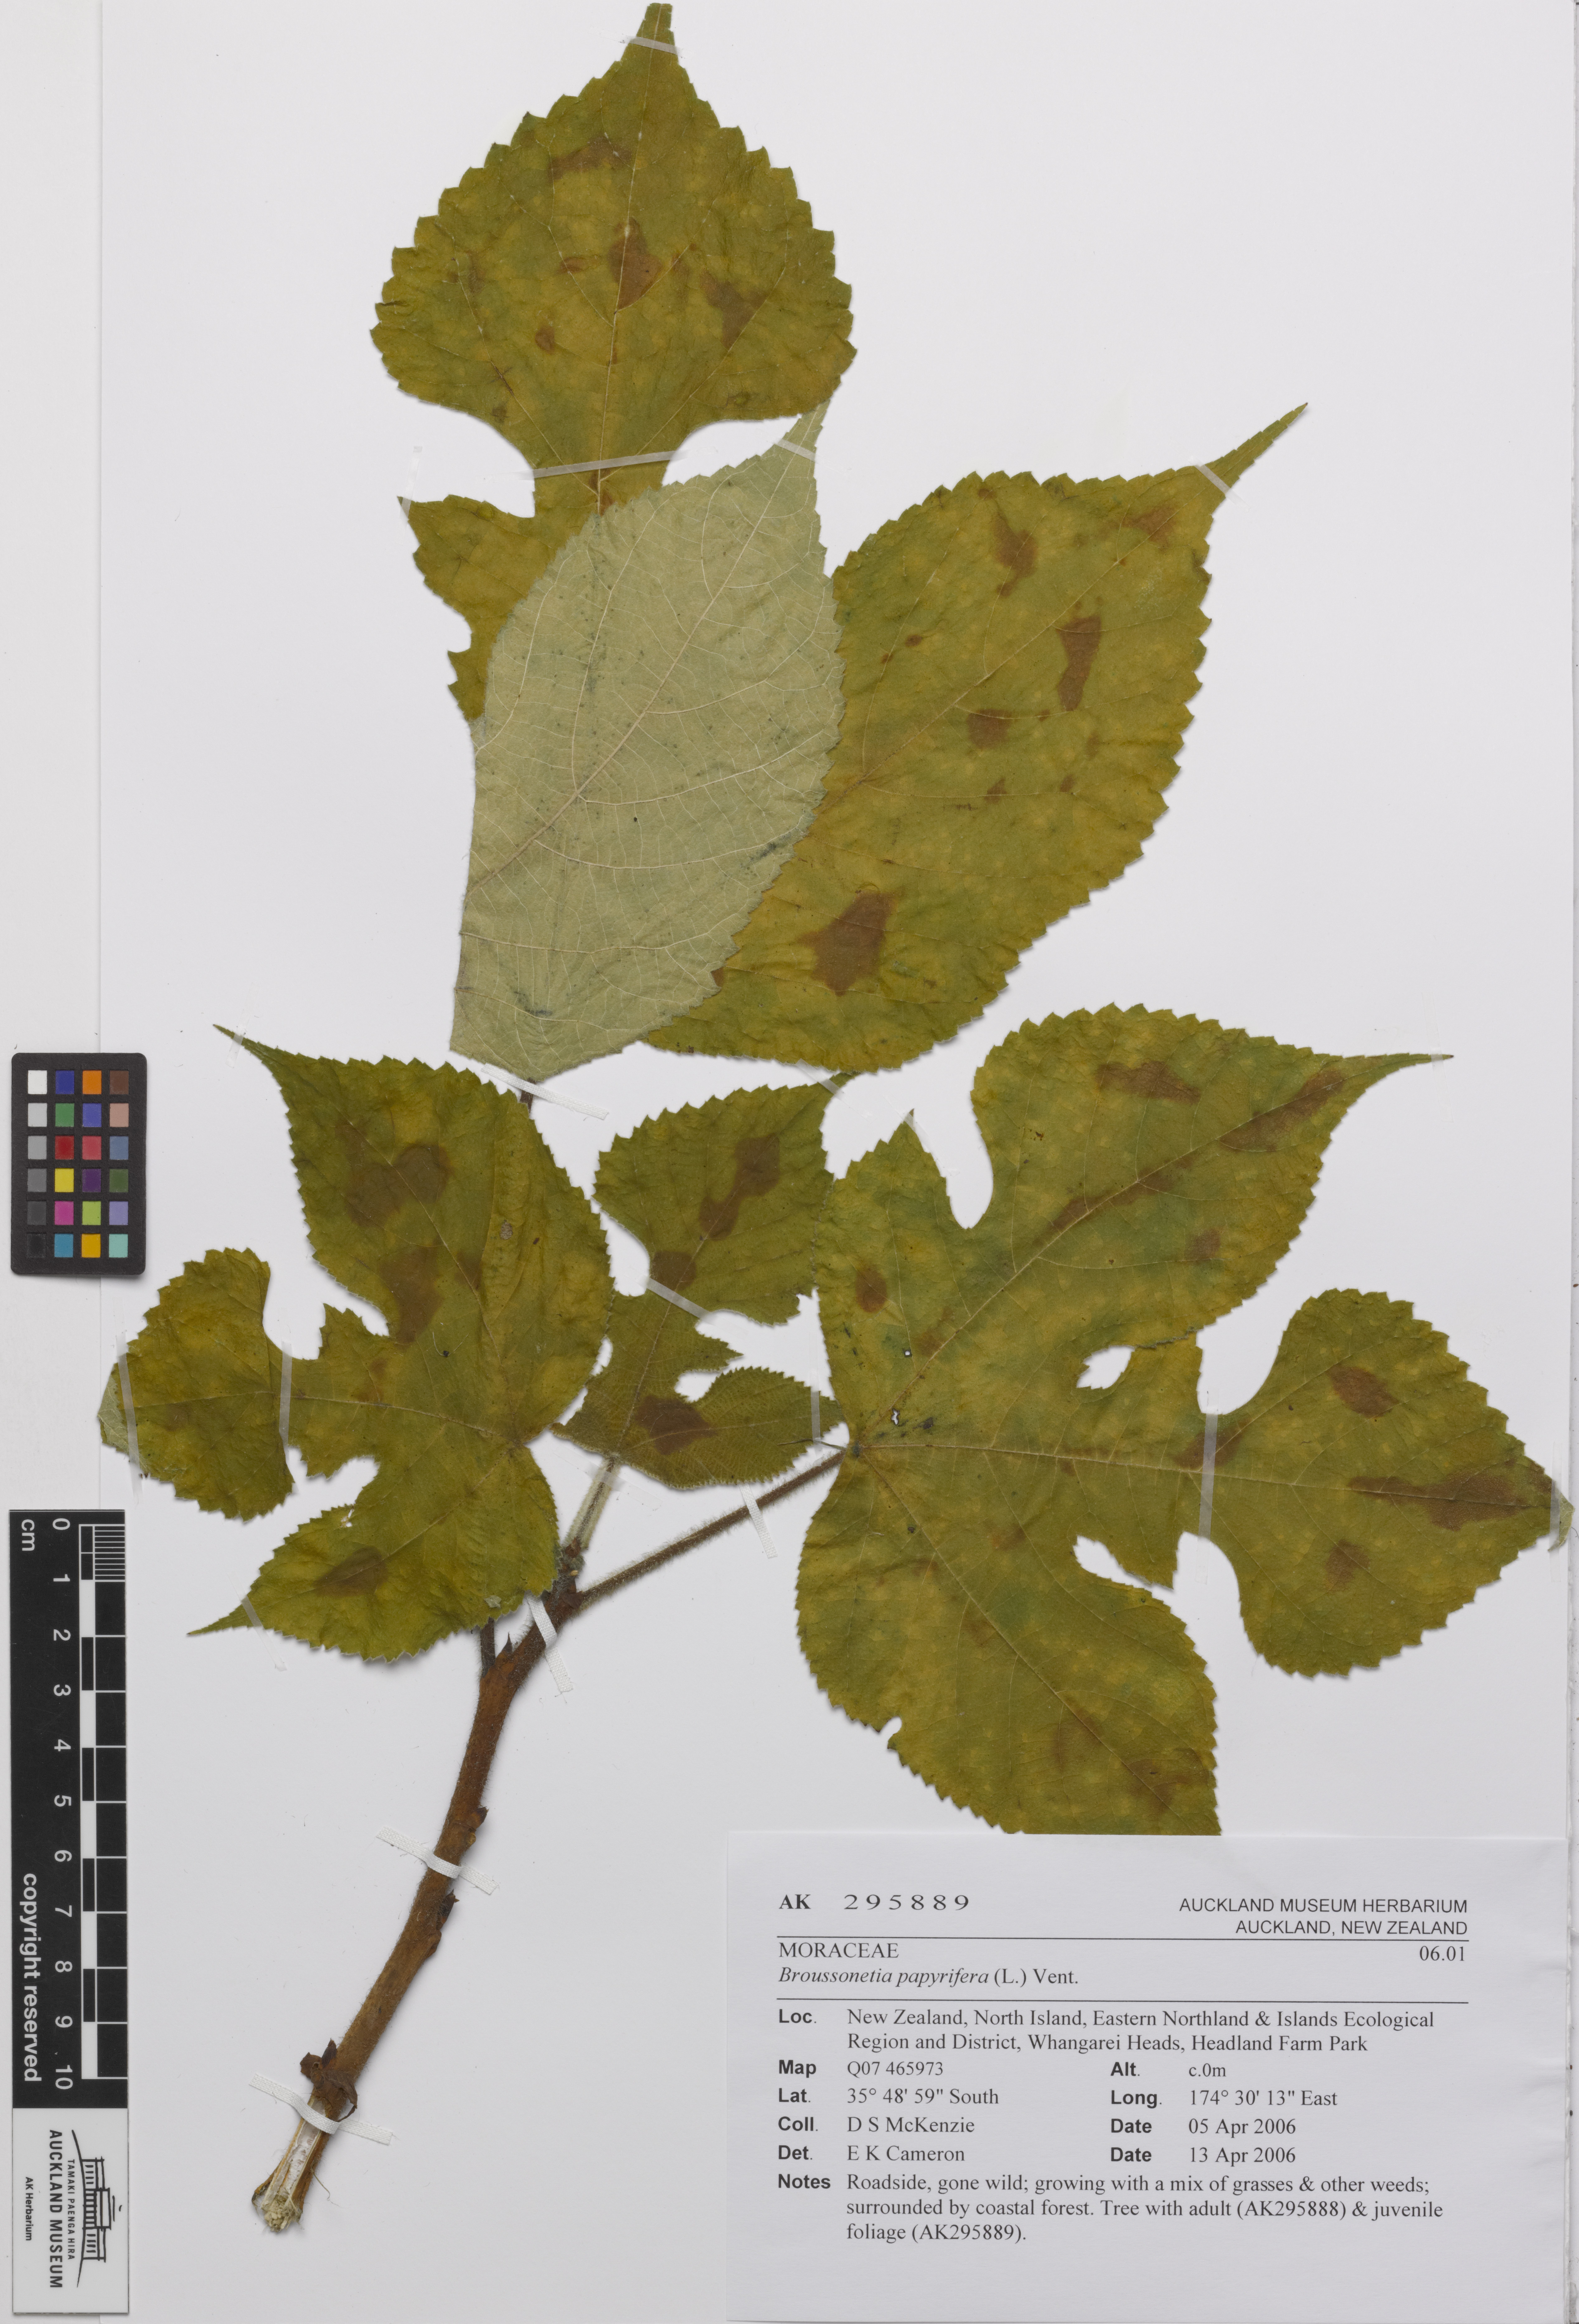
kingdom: Plantae
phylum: Tracheophyta
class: Magnoliopsida
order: Rosales
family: Moraceae
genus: Broussonetia
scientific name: Broussonetia papyrifera
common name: Paper mulberry
